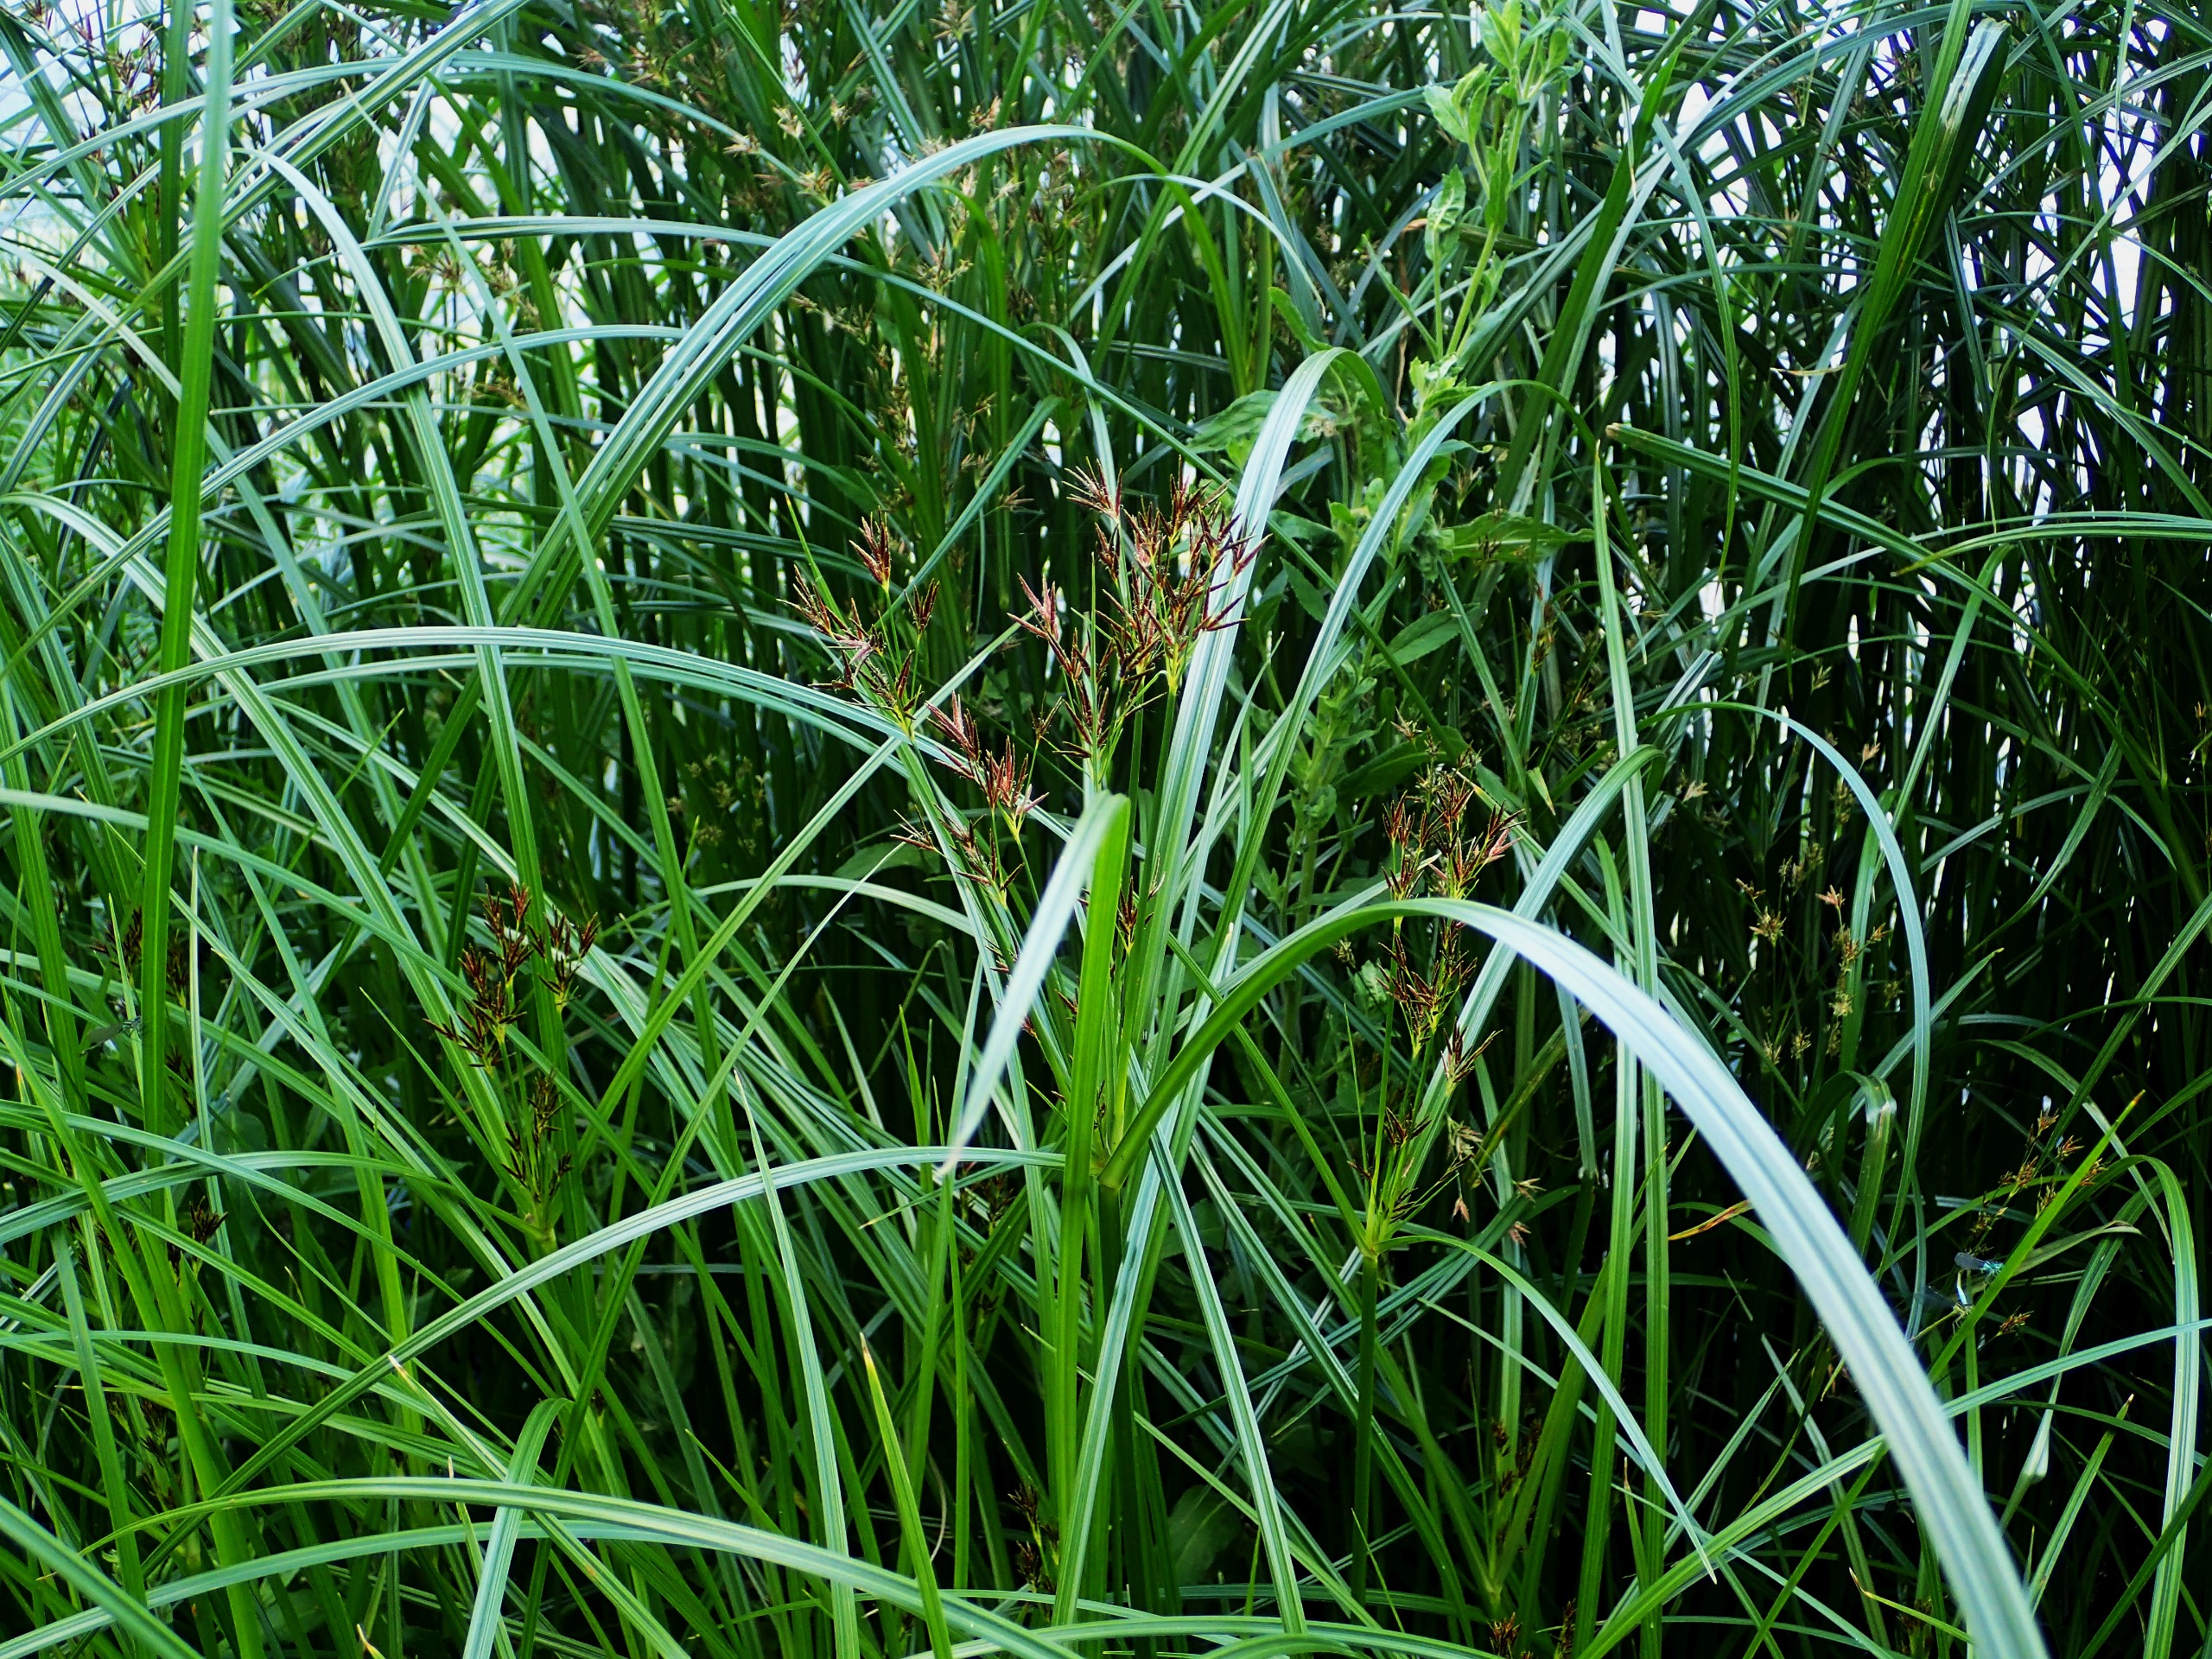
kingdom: Plantae
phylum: Tracheophyta
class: Liliopsida
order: Poales
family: Cyperaceae
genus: Cyperus
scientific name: Cyperus longus
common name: Smalbladet fladaks
